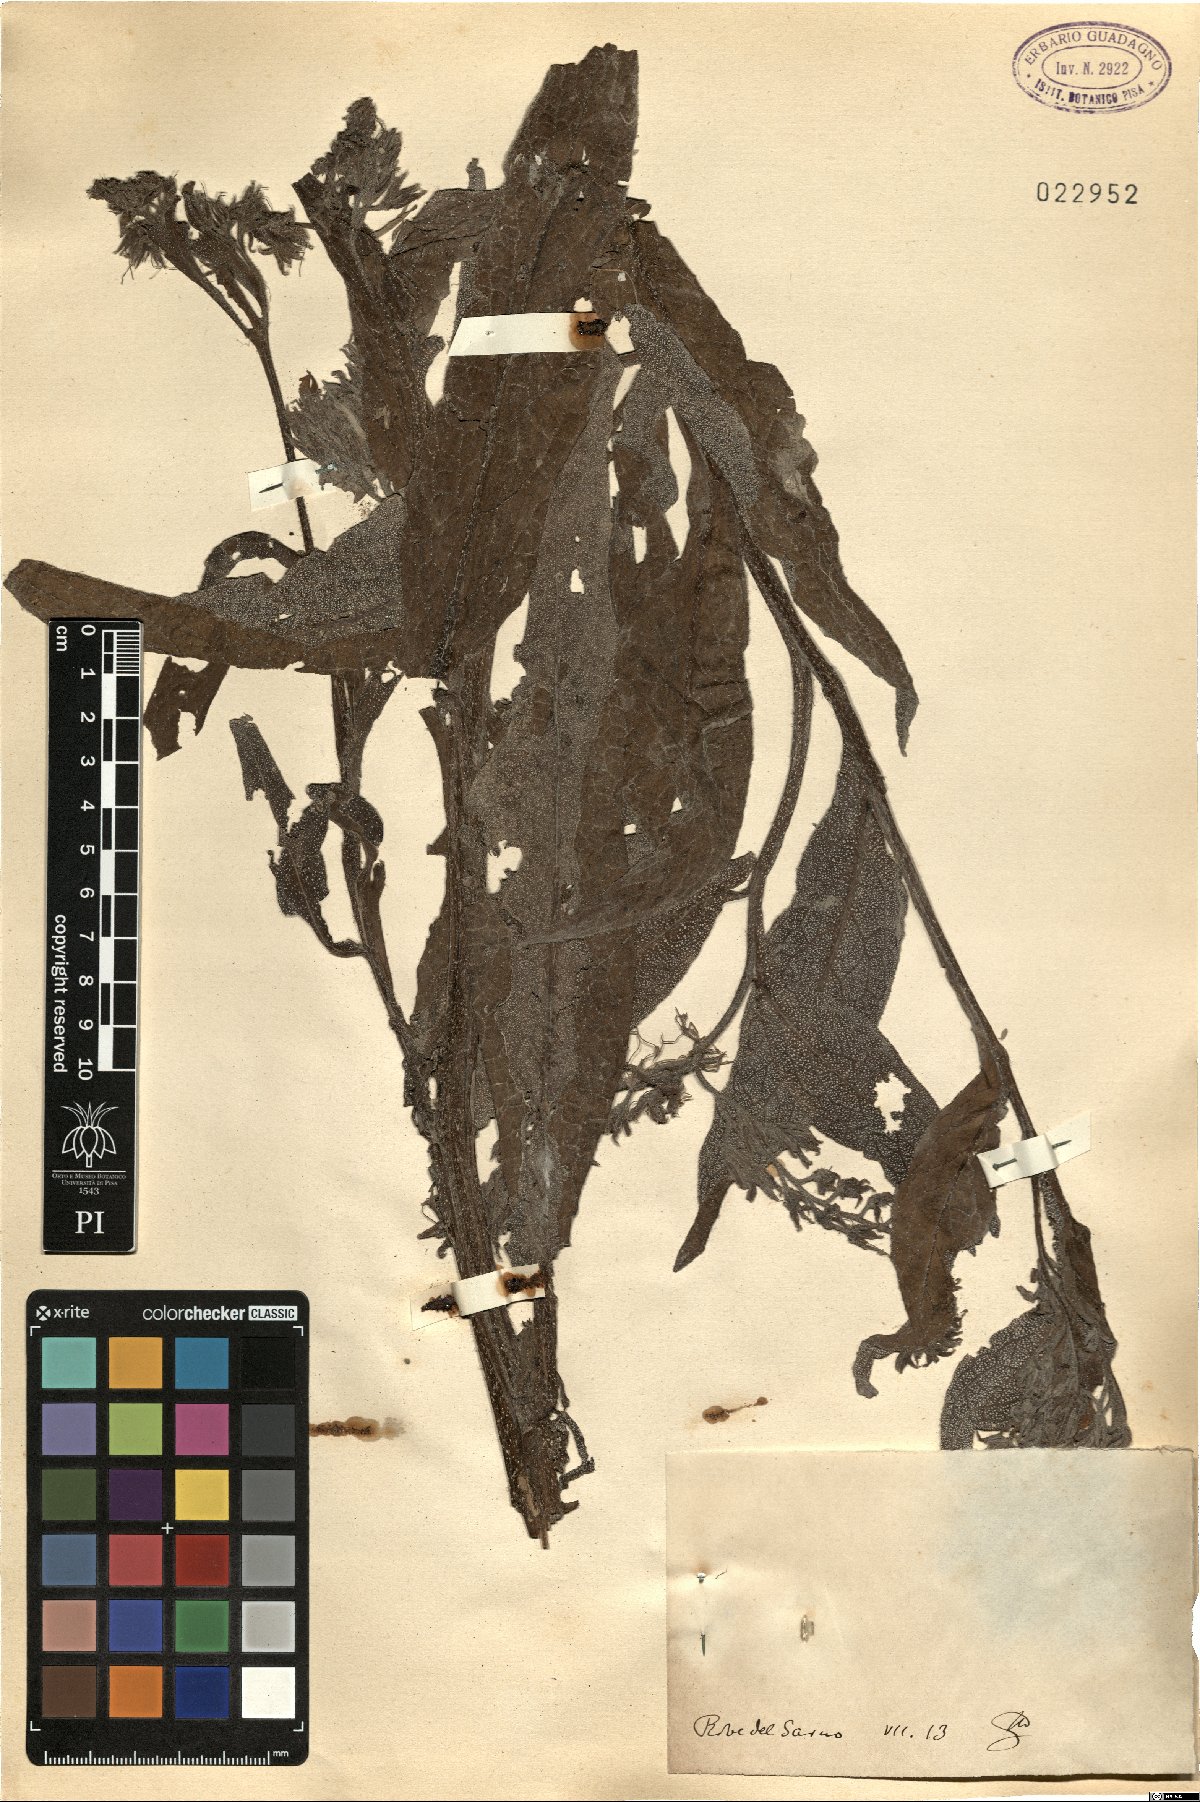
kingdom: Plantae
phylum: Tracheophyta
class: Magnoliopsida
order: Boraginales
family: Boraginaceae
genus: Symphytum
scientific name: Symphytum
